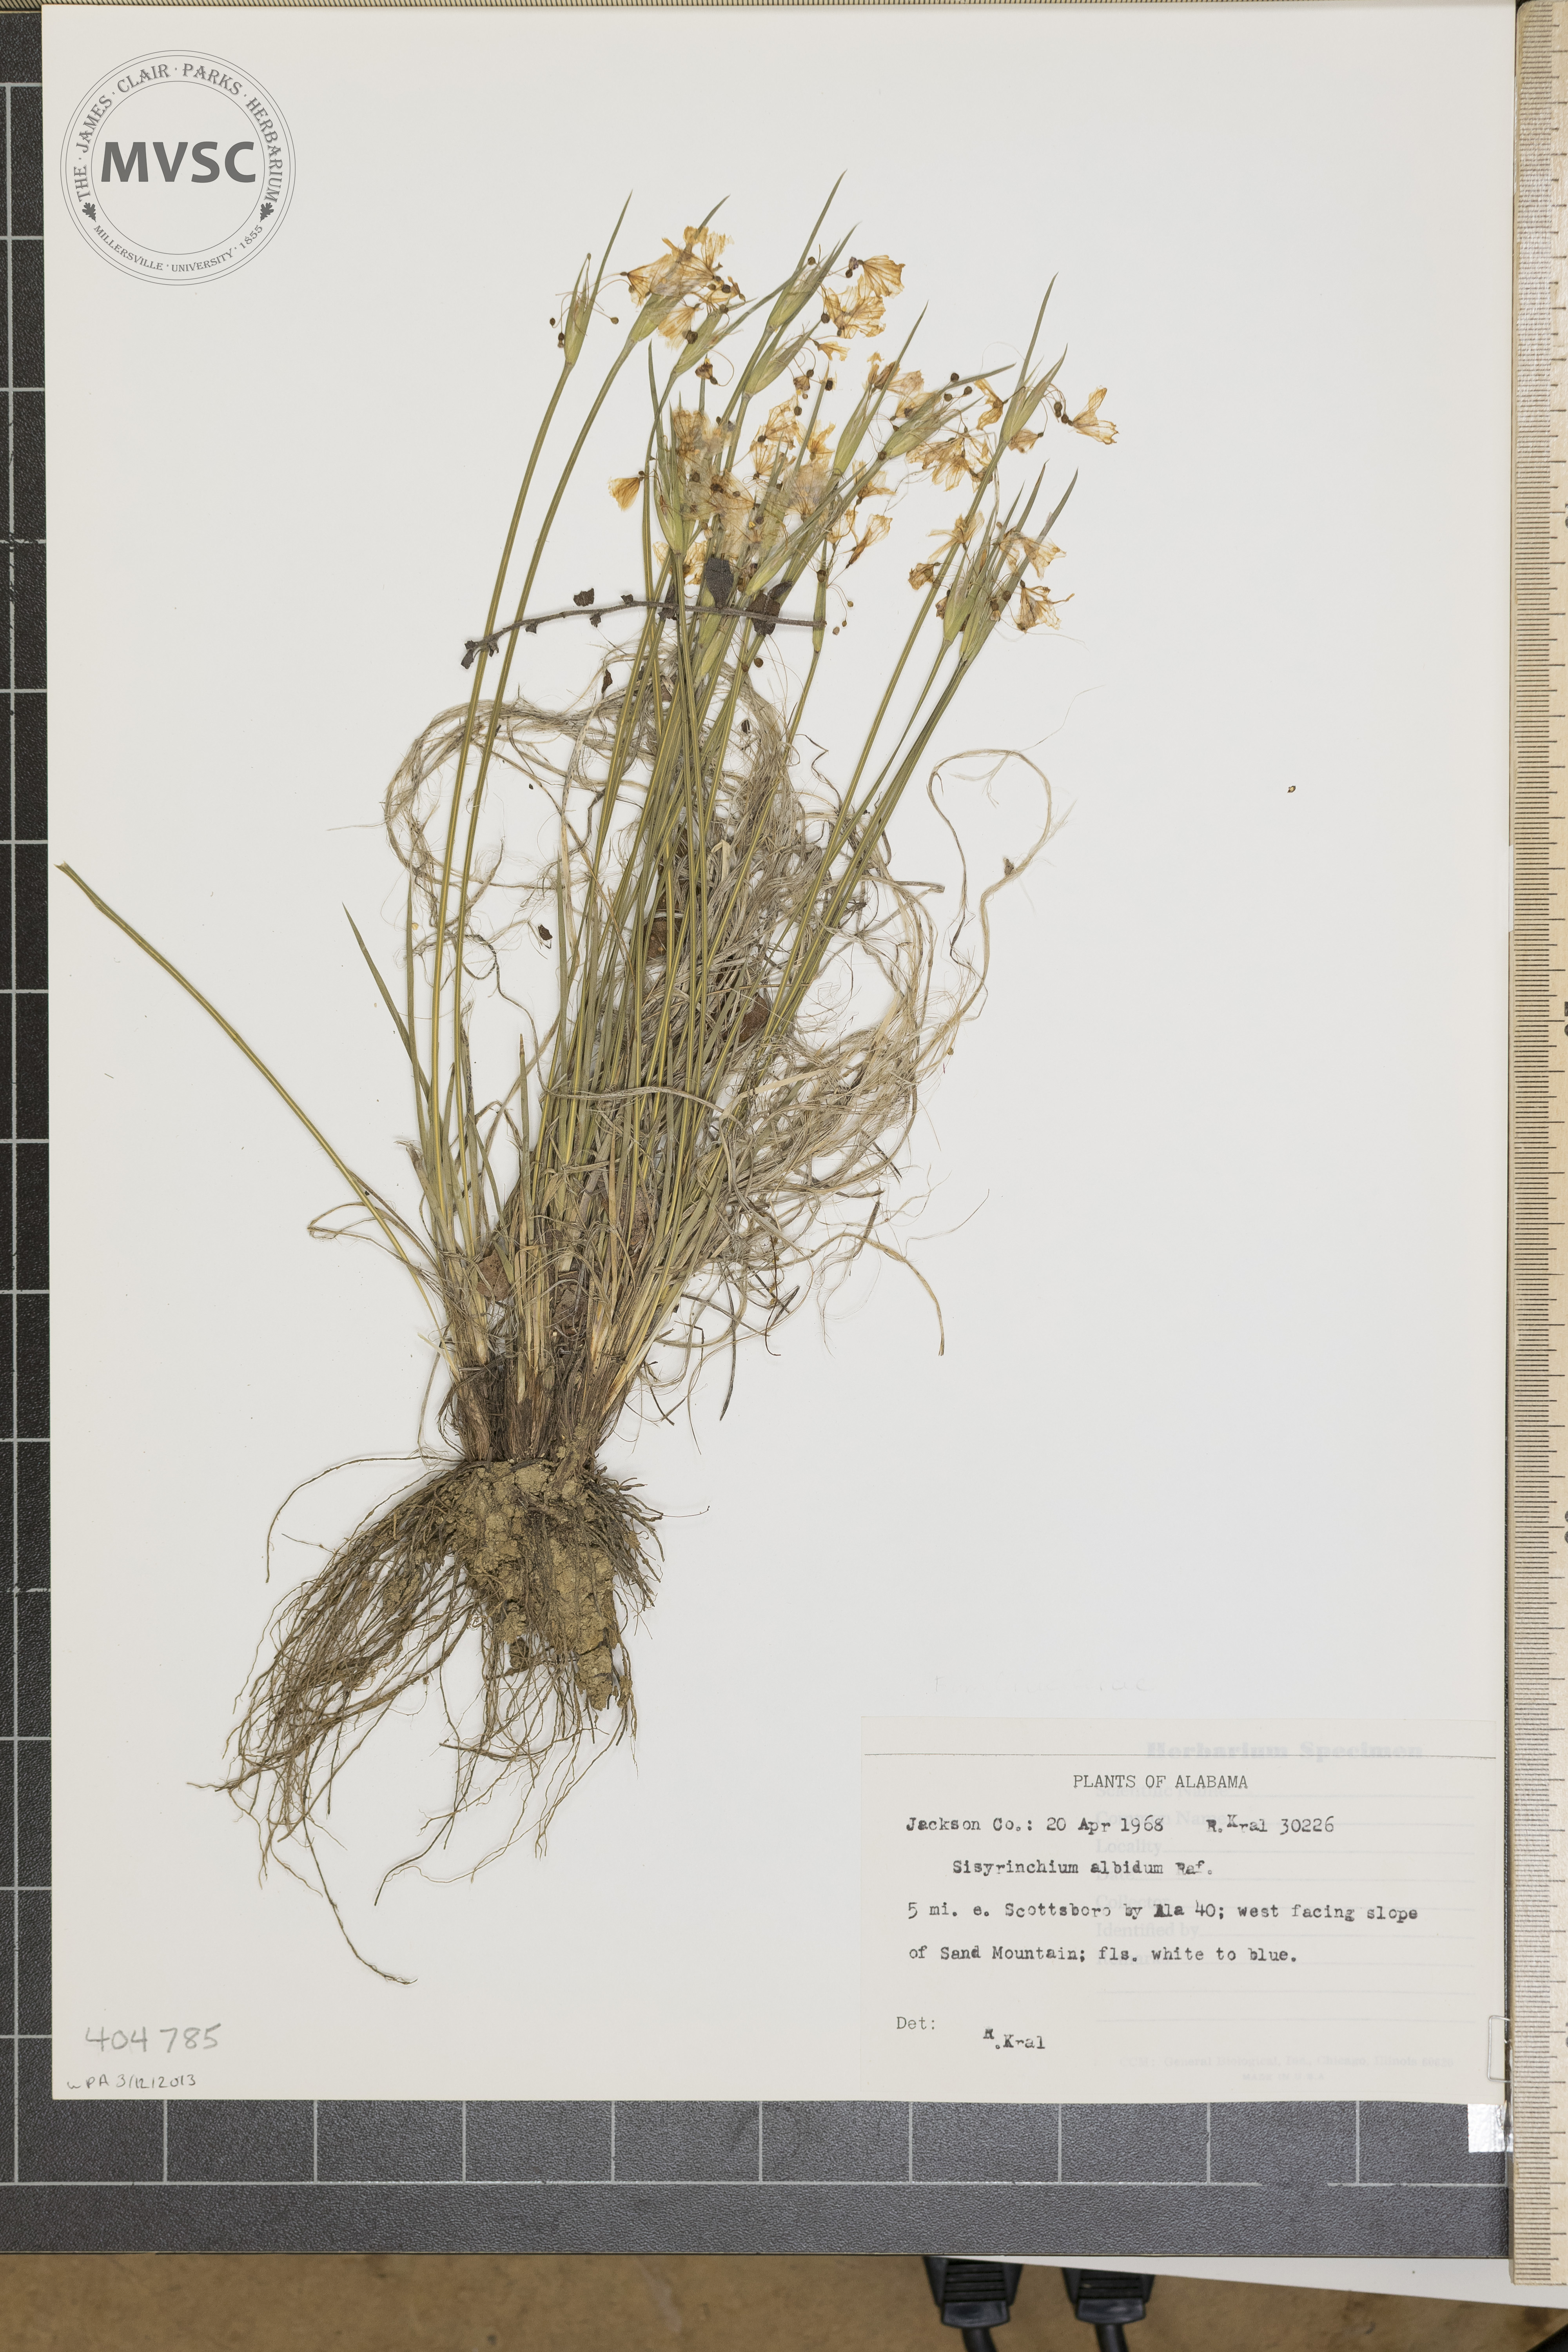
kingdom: Plantae
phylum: Tracheophyta
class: Liliopsida
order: Asparagales
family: Iridaceae
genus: Sisyrinchium
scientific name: Sisyrinchium albidum
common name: Pale blue-eyed-grass
